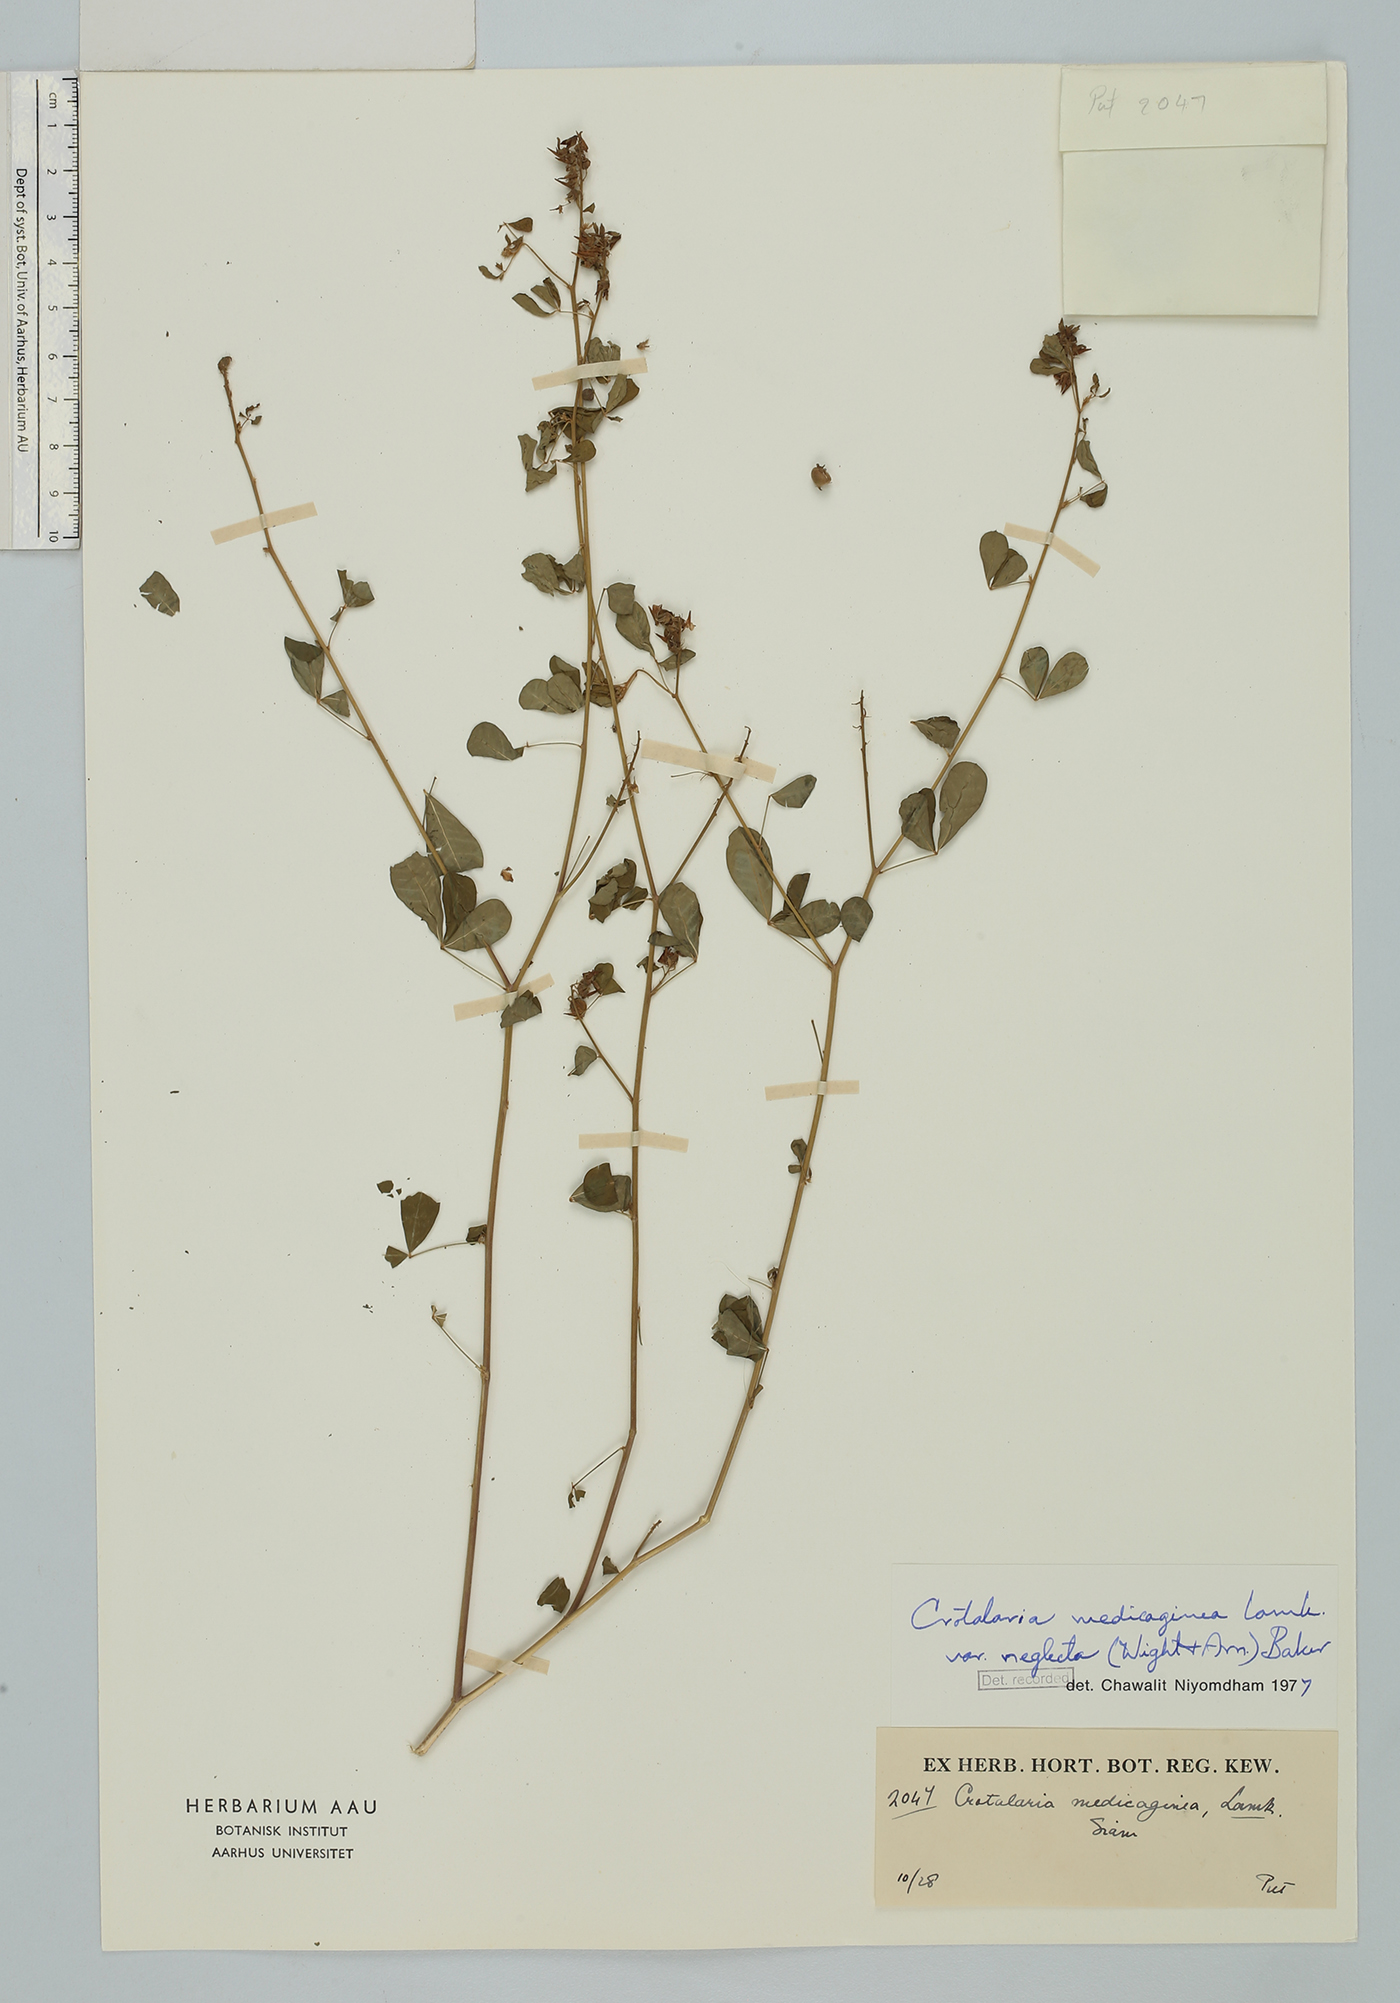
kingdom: Plantae
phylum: Tracheophyta
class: Magnoliopsida
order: Fabales
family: Fabaceae
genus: Crotalaria
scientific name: Crotalaria medicaginea
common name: Trefoil rattlepod
